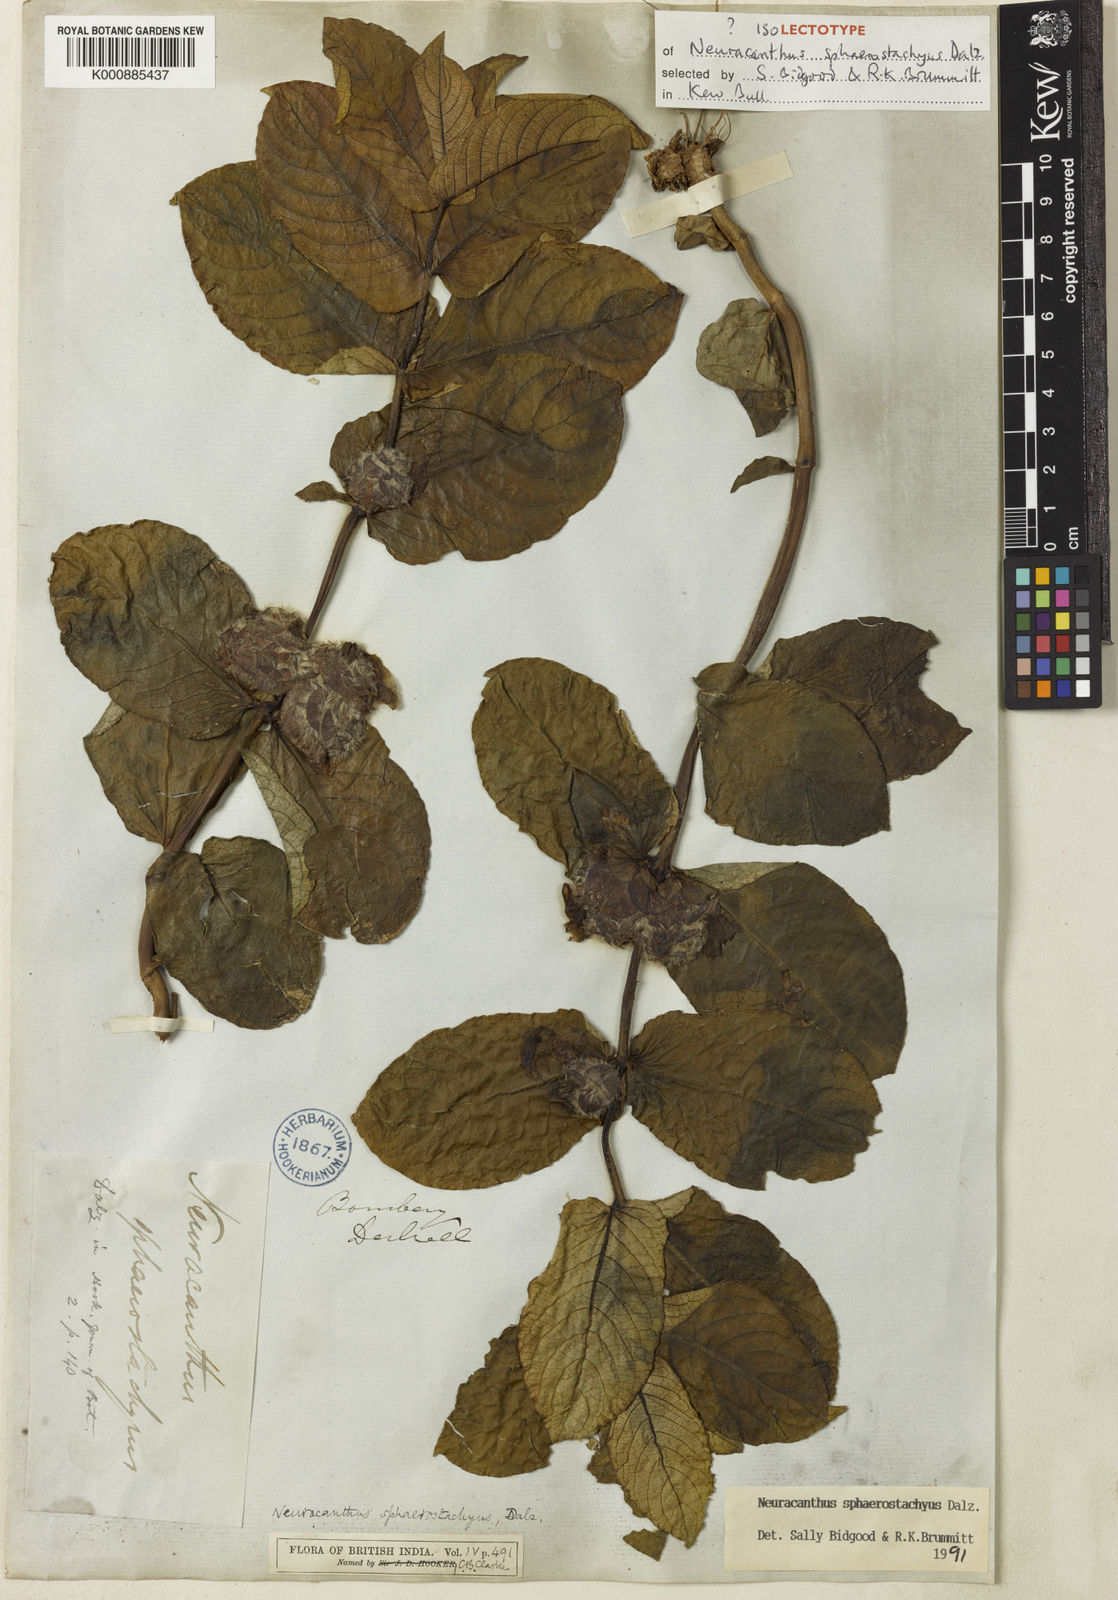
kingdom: Plantae
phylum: Tracheophyta
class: Magnoliopsida
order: Lamiales
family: Acanthaceae
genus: Neuracanthus
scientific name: Neuracanthus
